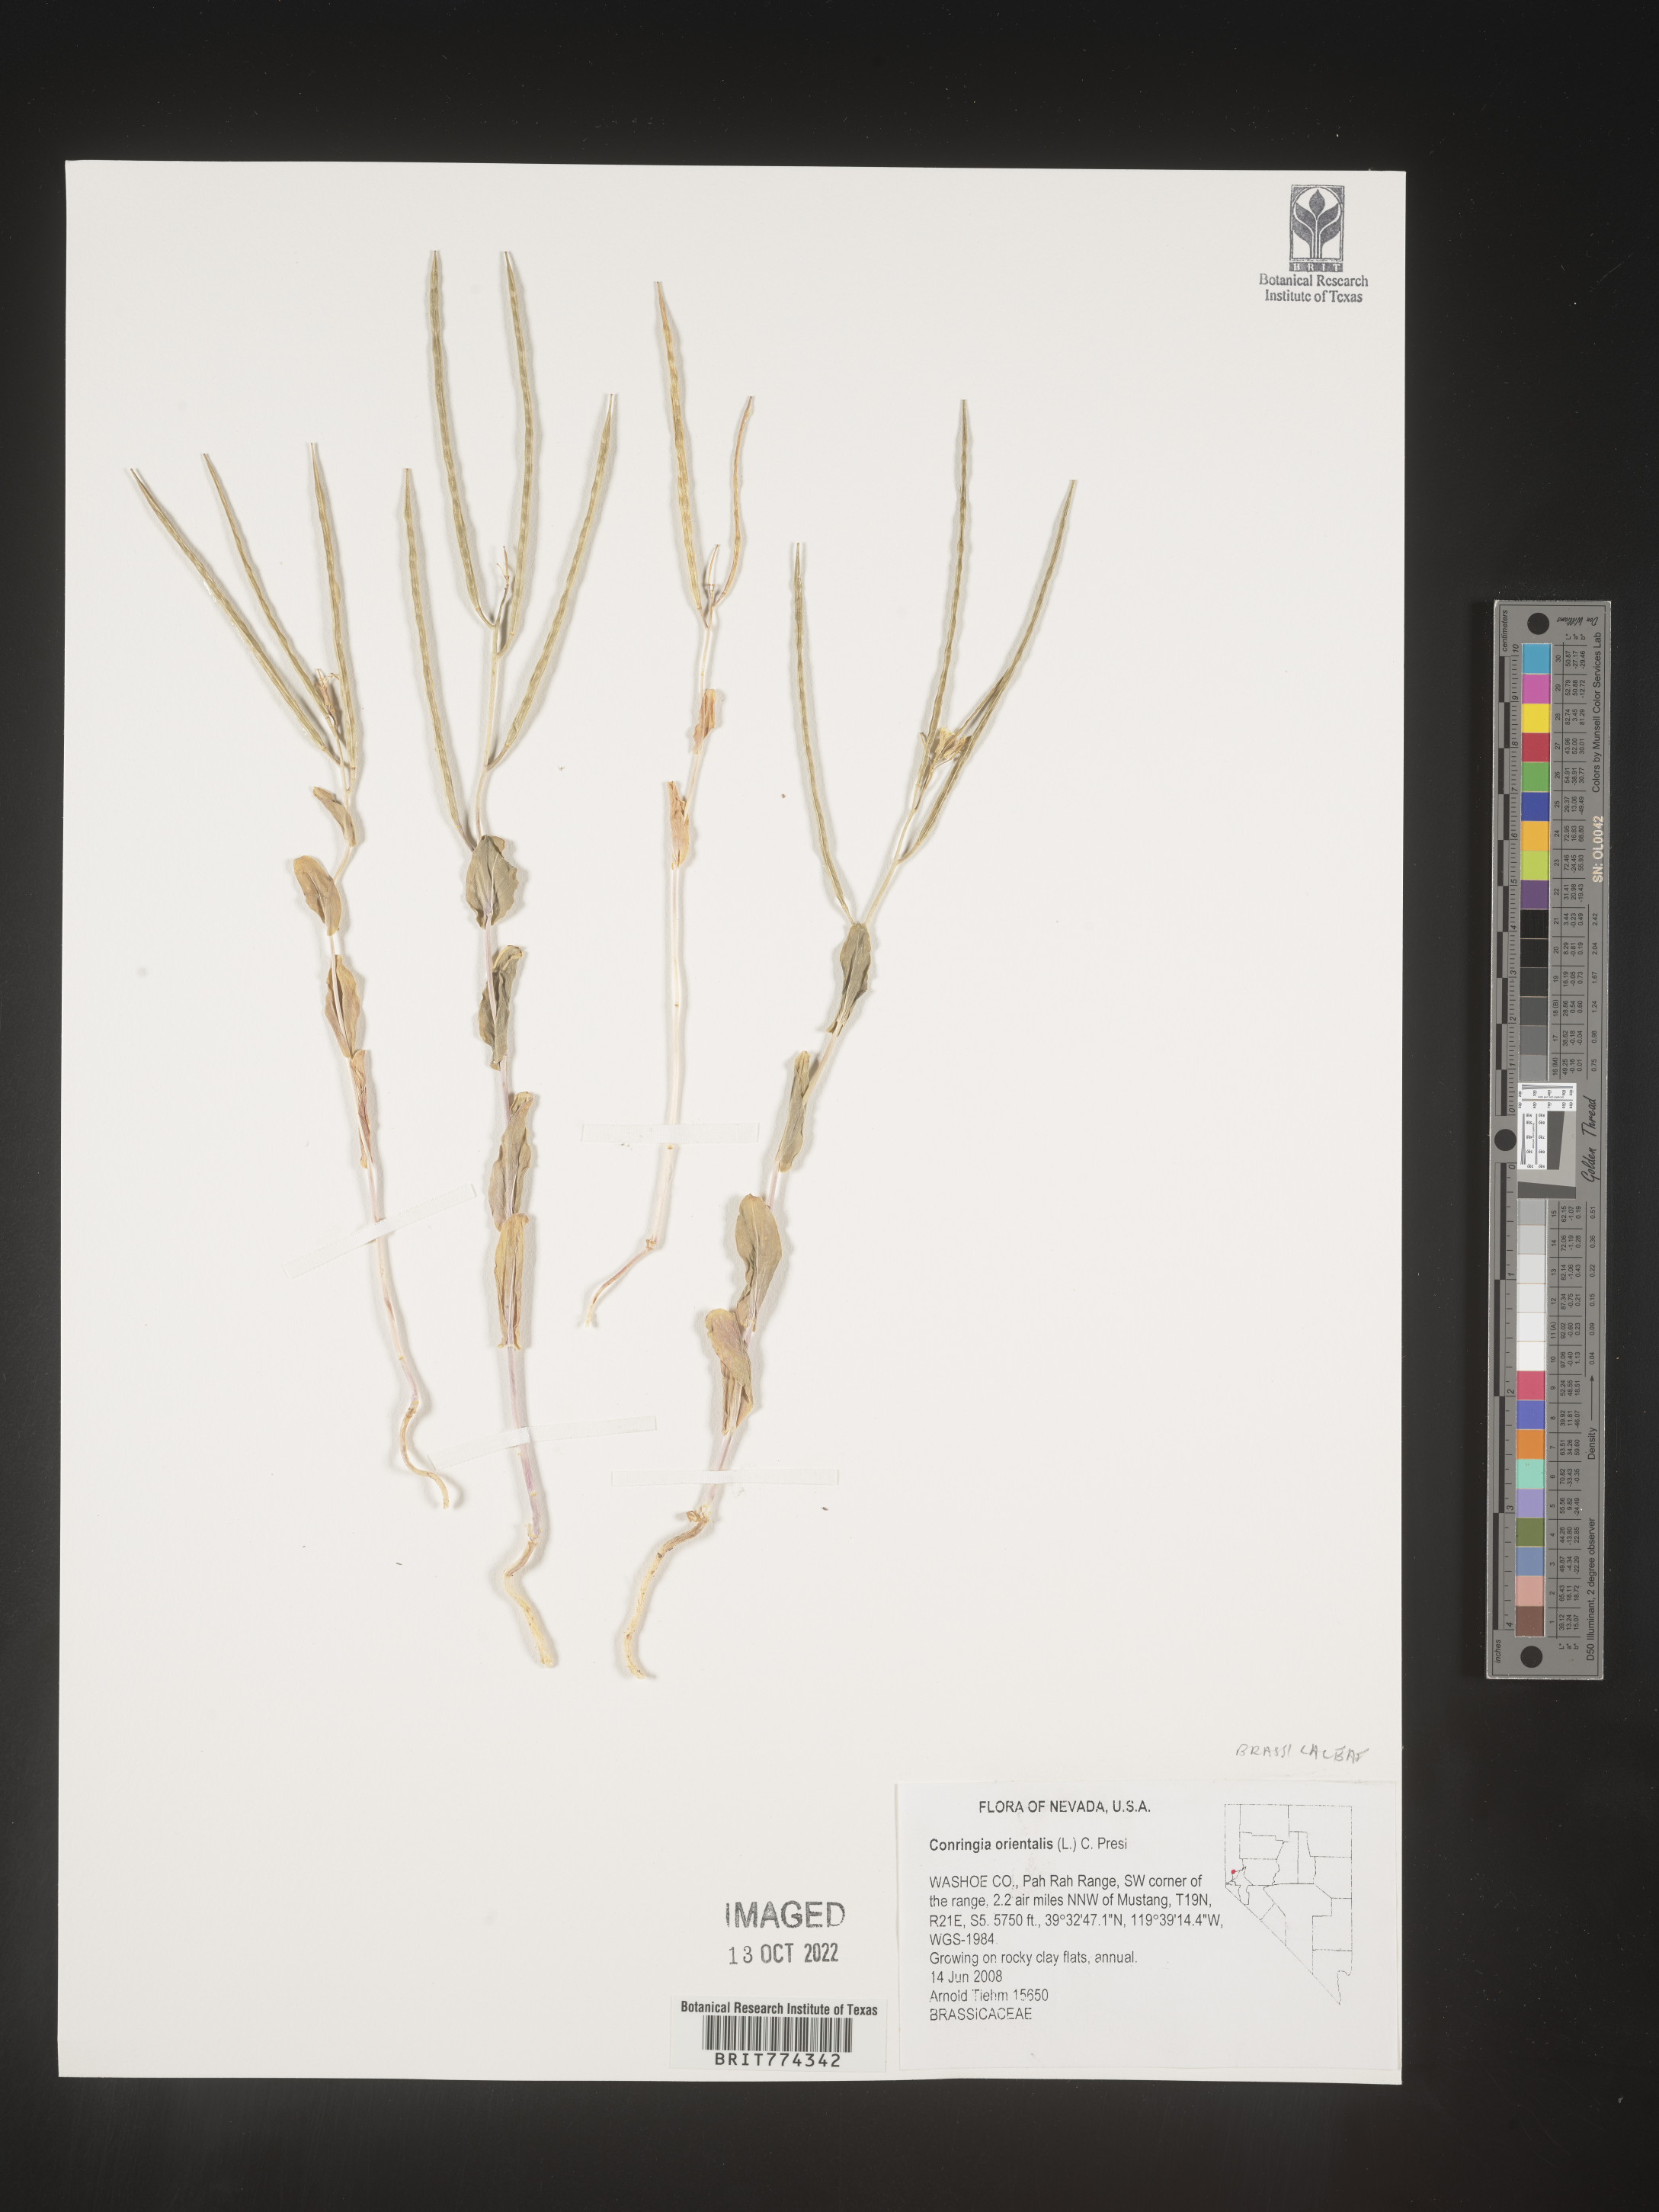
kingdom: Plantae
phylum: Tracheophyta
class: Magnoliopsida
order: Brassicales
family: Brassicaceae
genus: Conringia
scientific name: Conringia
